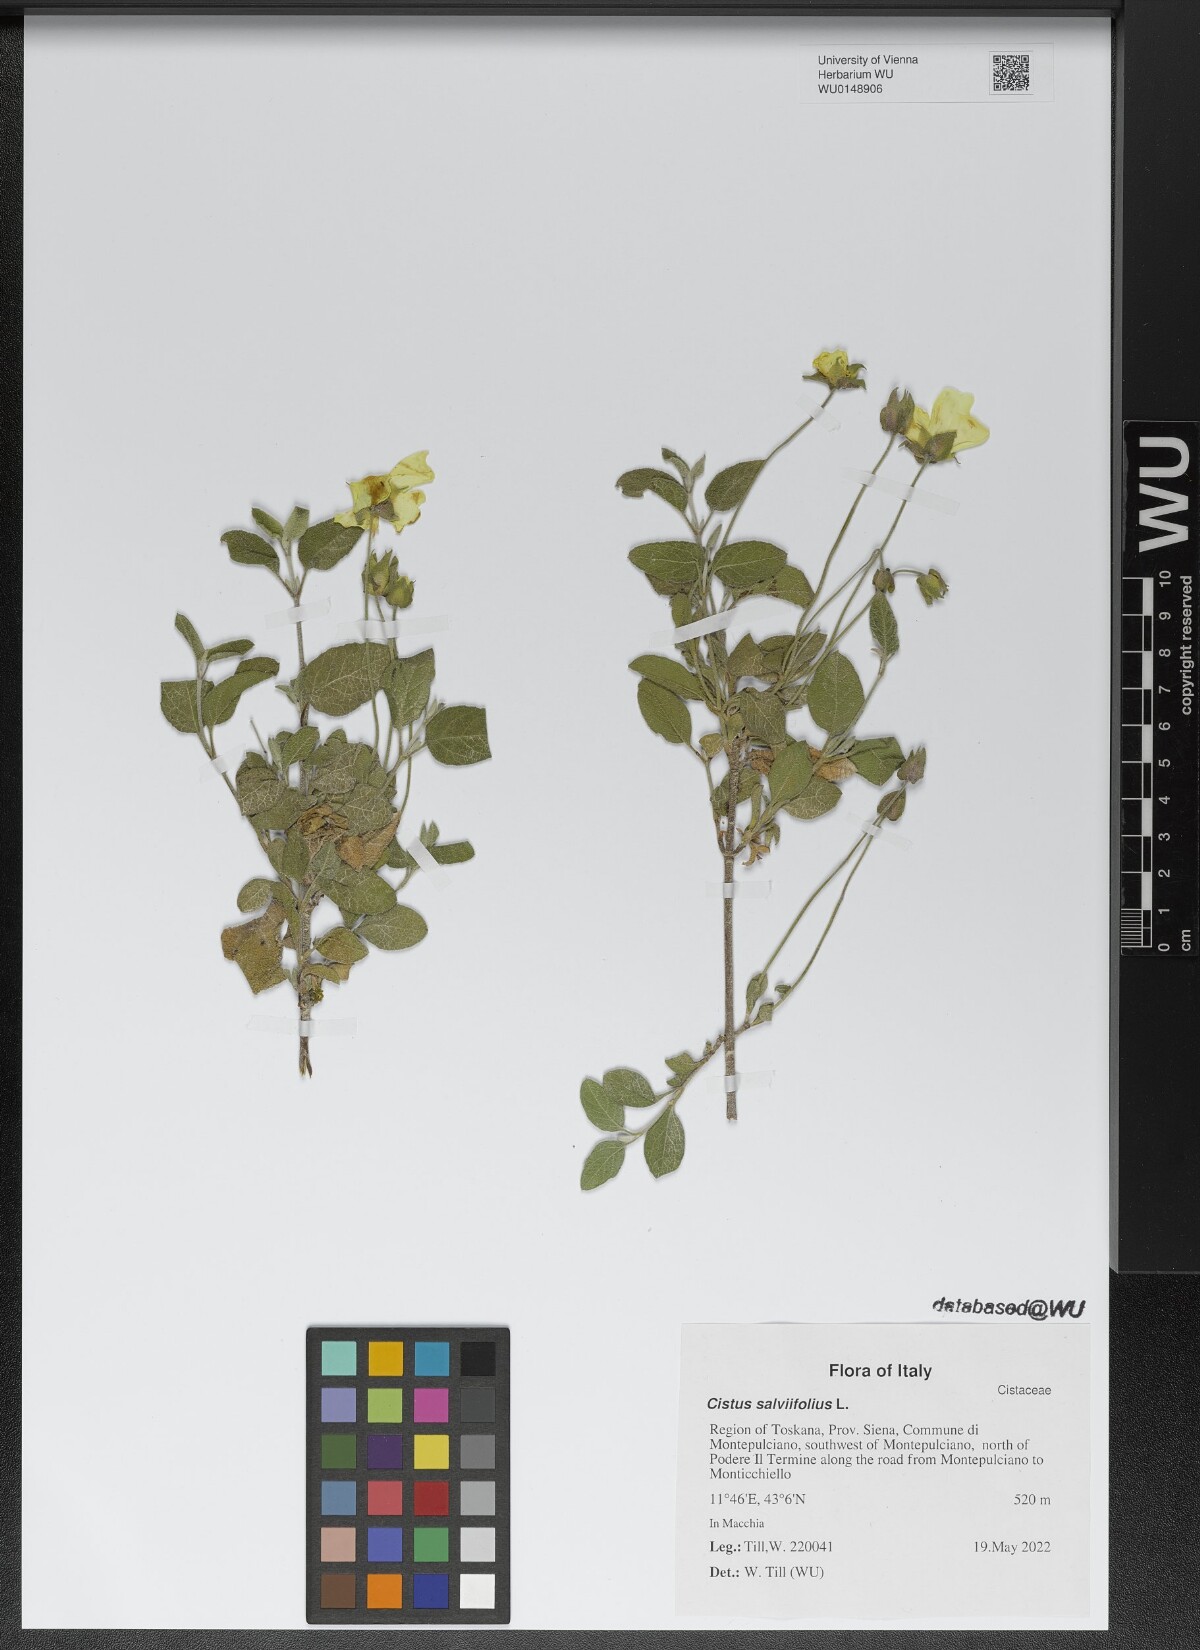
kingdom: Plantae
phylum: Tracheophyta
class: Magnoliopsida
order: Malvales
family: Cistaceae
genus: Cistus
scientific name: Cistus salviifolius
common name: Salvia cistus
